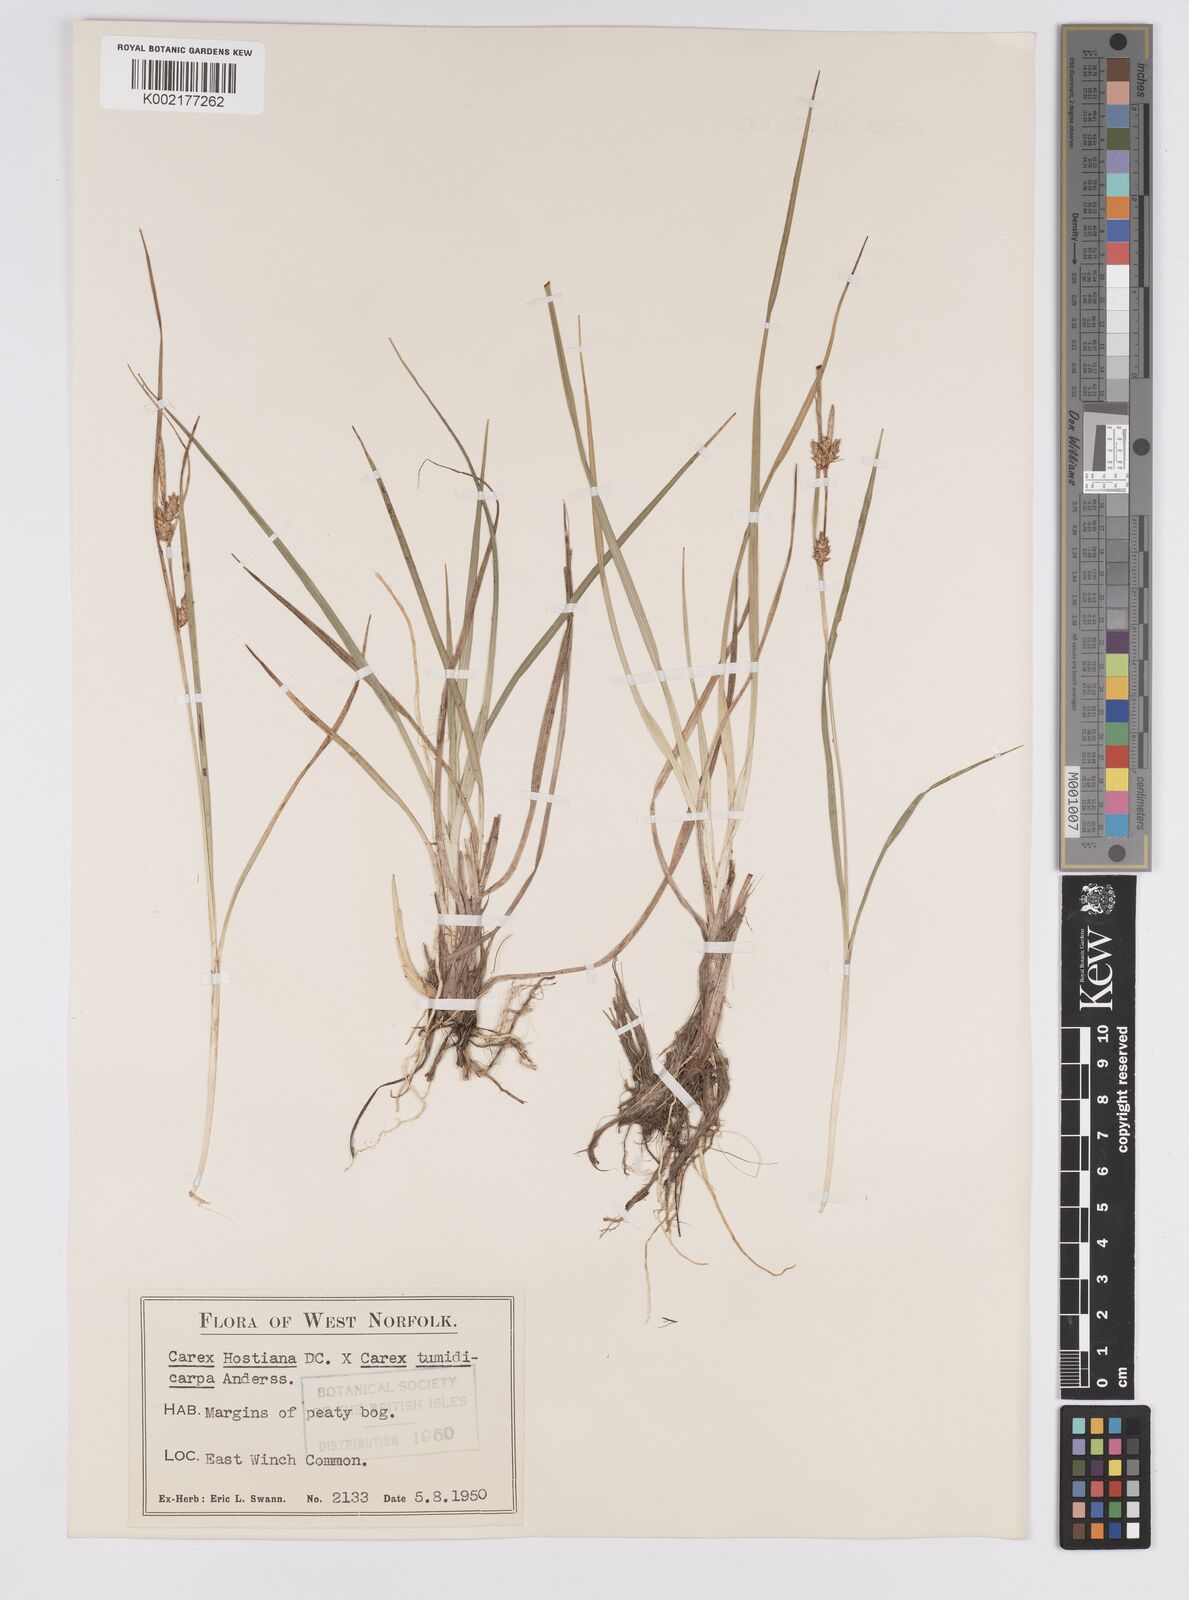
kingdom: Plantae
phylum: Tracheophyta
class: Liliopsida
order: Poales
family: Cyperaceae
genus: Carex
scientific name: Carex hostiana
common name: Tawny sedge
